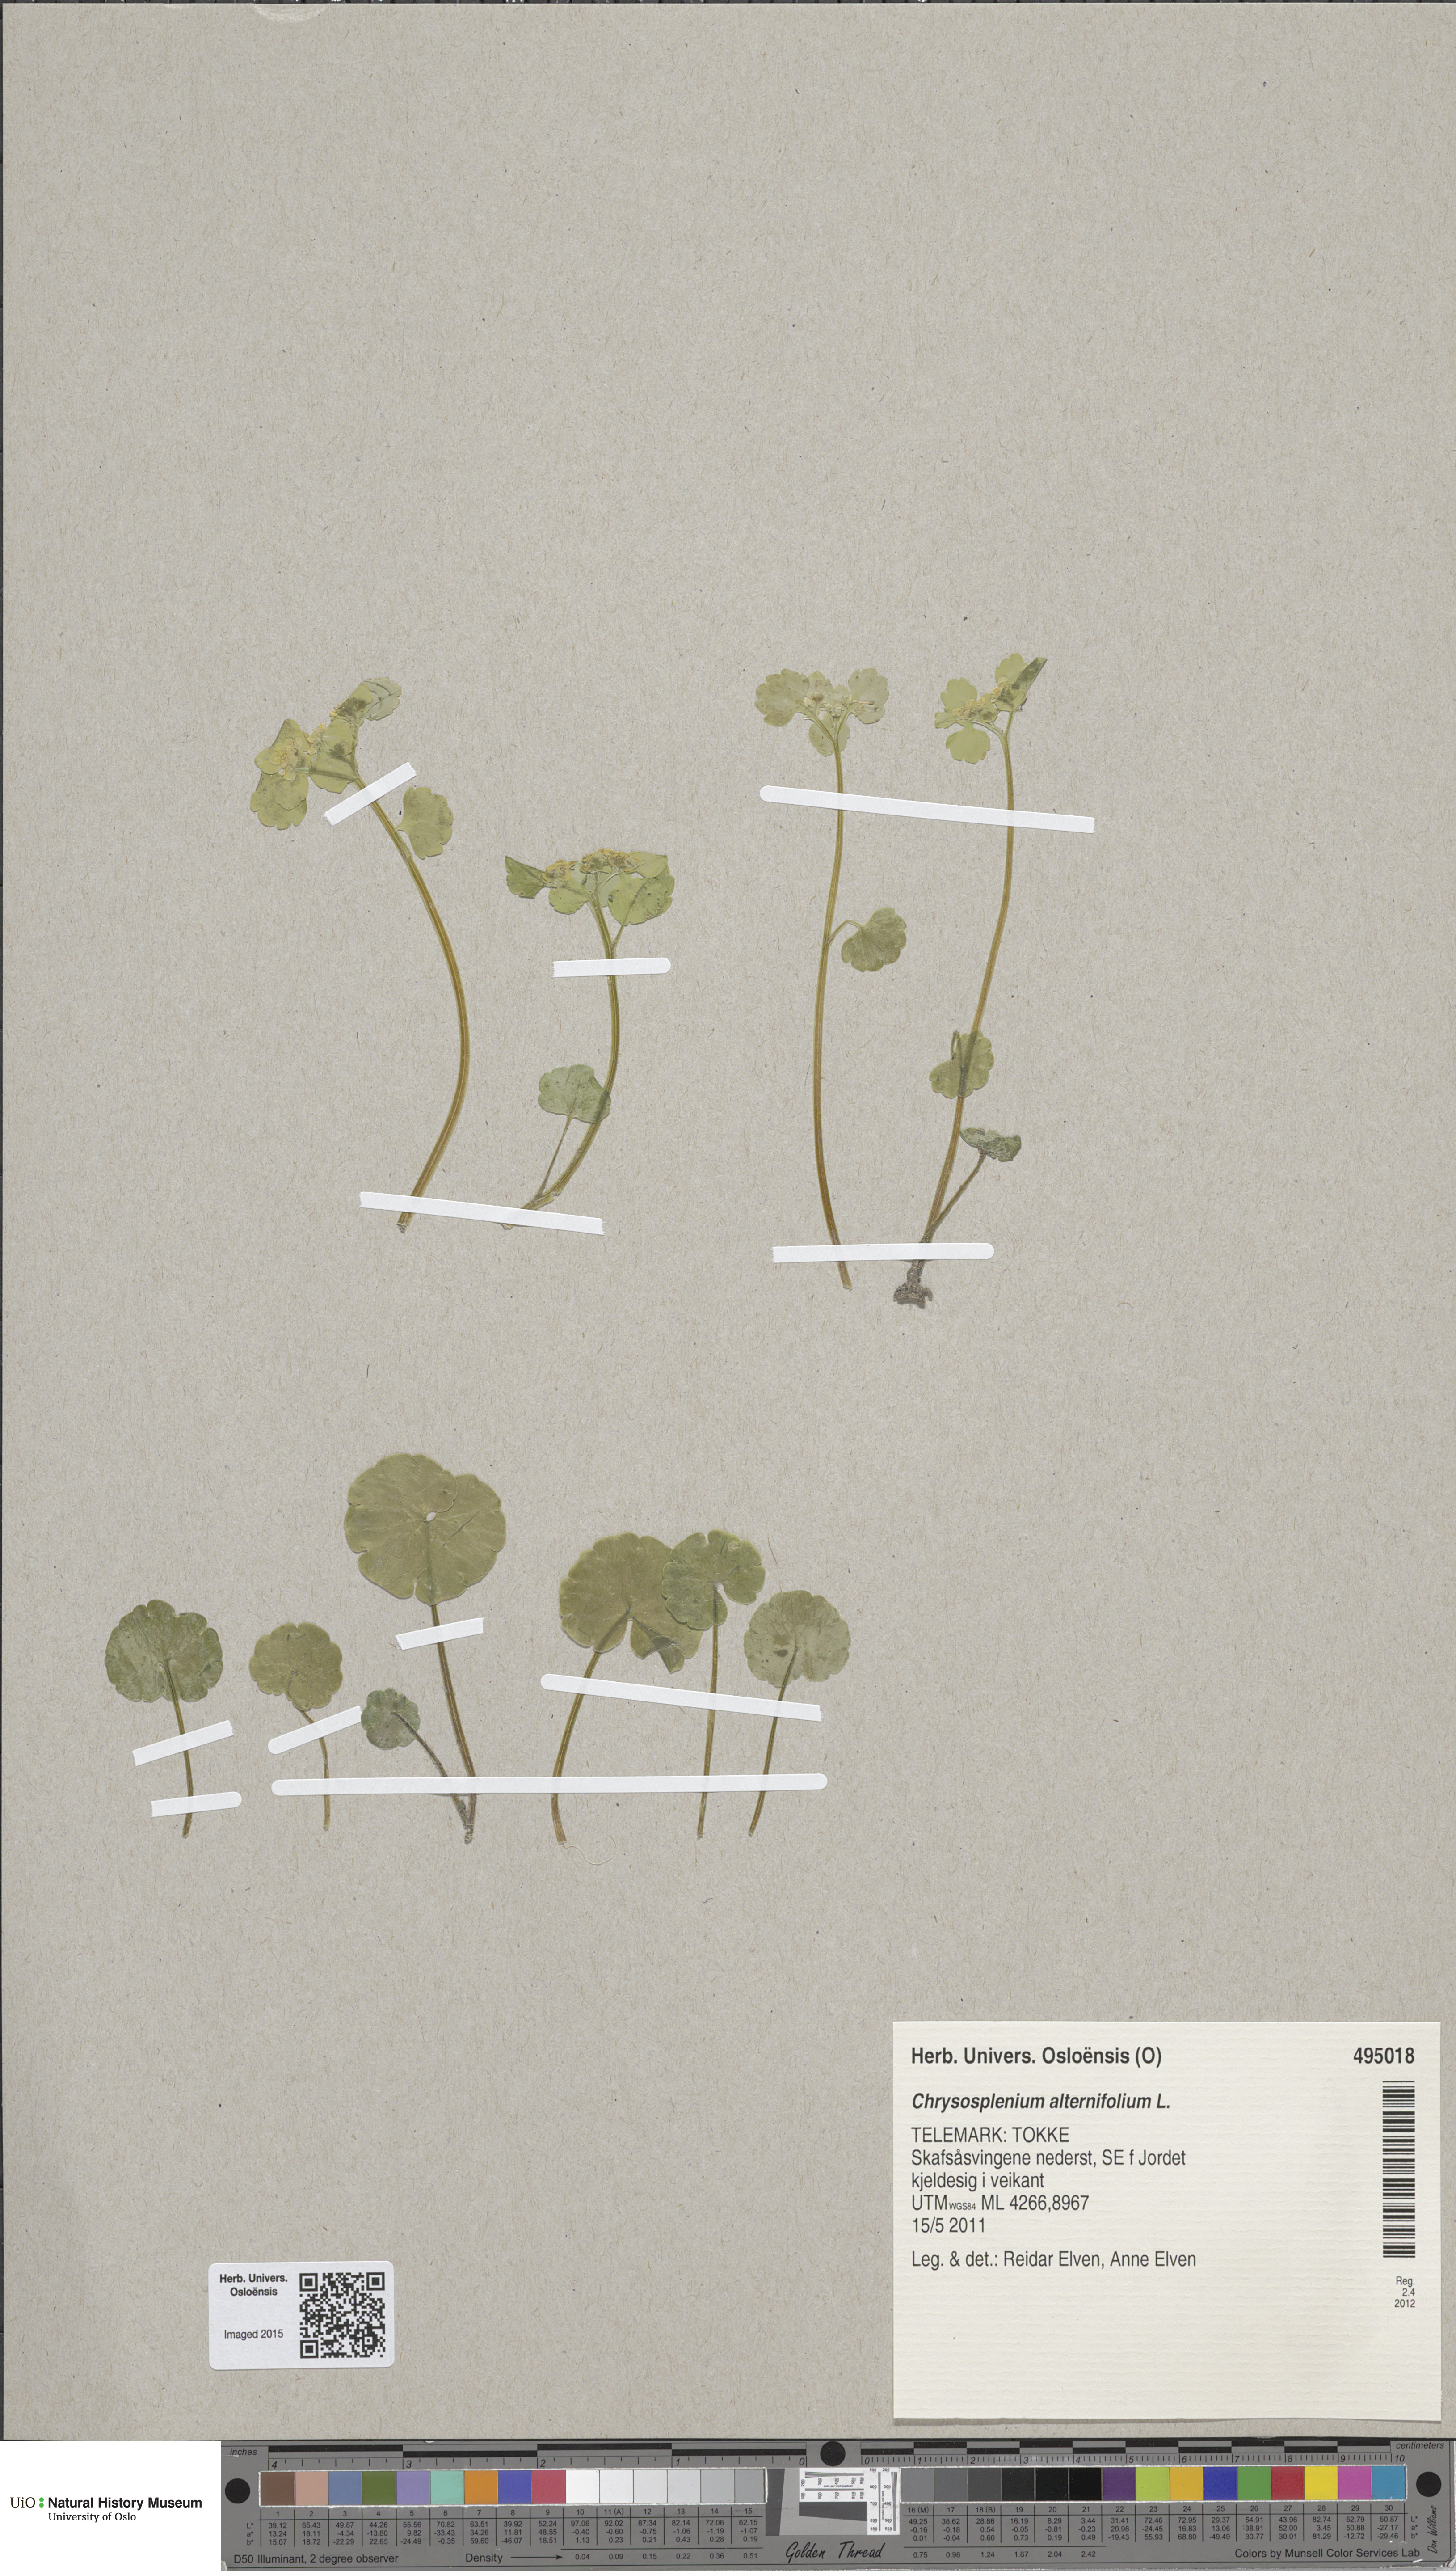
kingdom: Plantae
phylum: Tracheophyta
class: Magnoliopsida
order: Saxifragales
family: Saxifragaceae
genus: Chrysosplenium
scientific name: Chrysosplenium alternifolium
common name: Alternate-leaved golden-saxifrage
